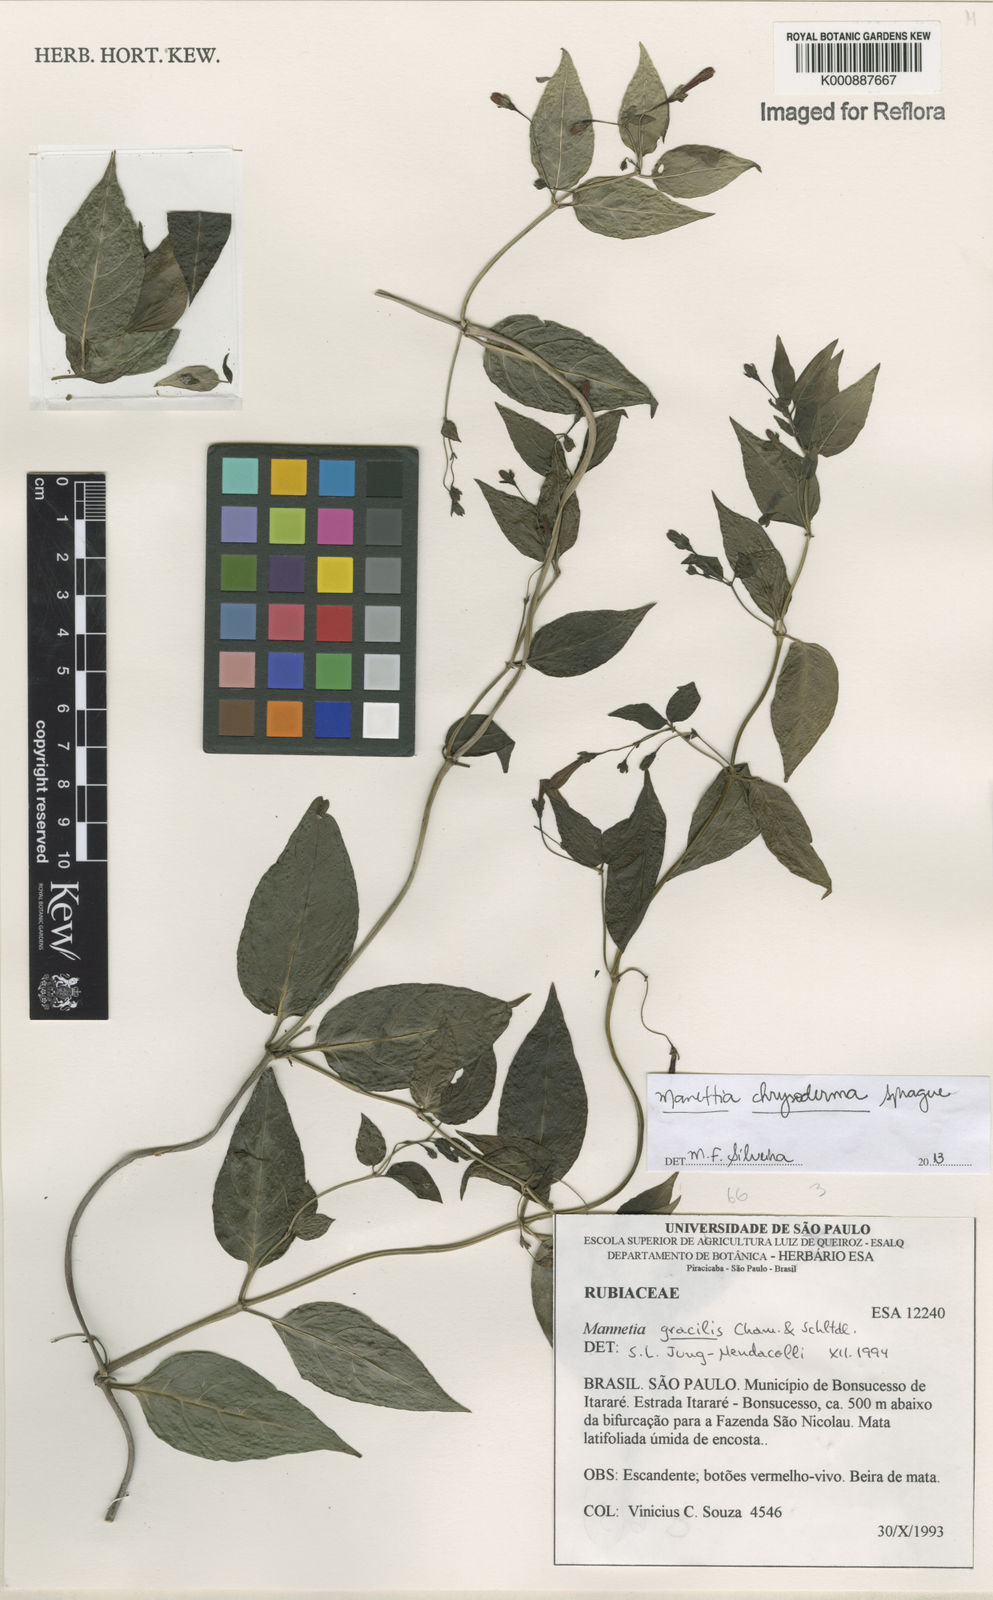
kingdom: Plantae
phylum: Tracheophyta
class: Magnoliopsida
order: Gentianales
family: Rubiaceae
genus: Manettia
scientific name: Manettia chrysoderma
